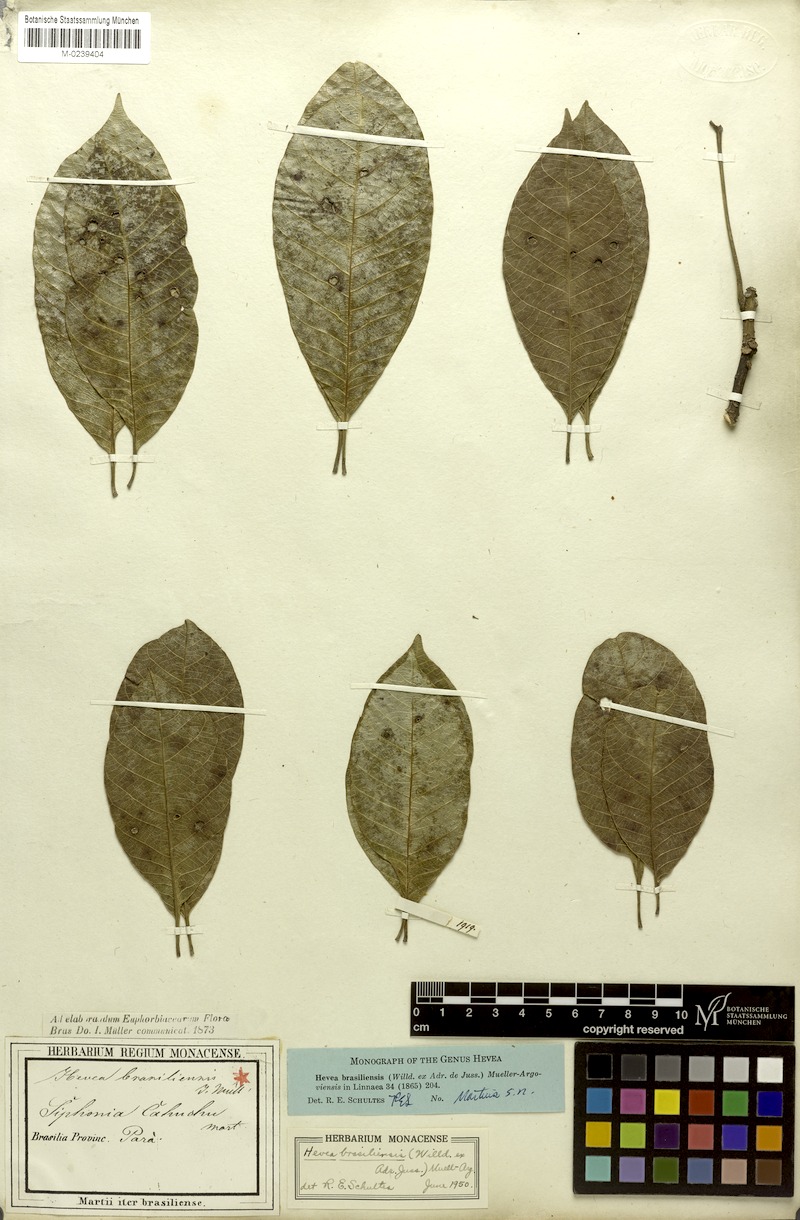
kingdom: Plantae
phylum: Tracheophyta
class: Magnoliopsida
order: Malpighiales
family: Euphorbiaceae
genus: Hevea
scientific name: Hevea brasiliensis
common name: Natural rubber
